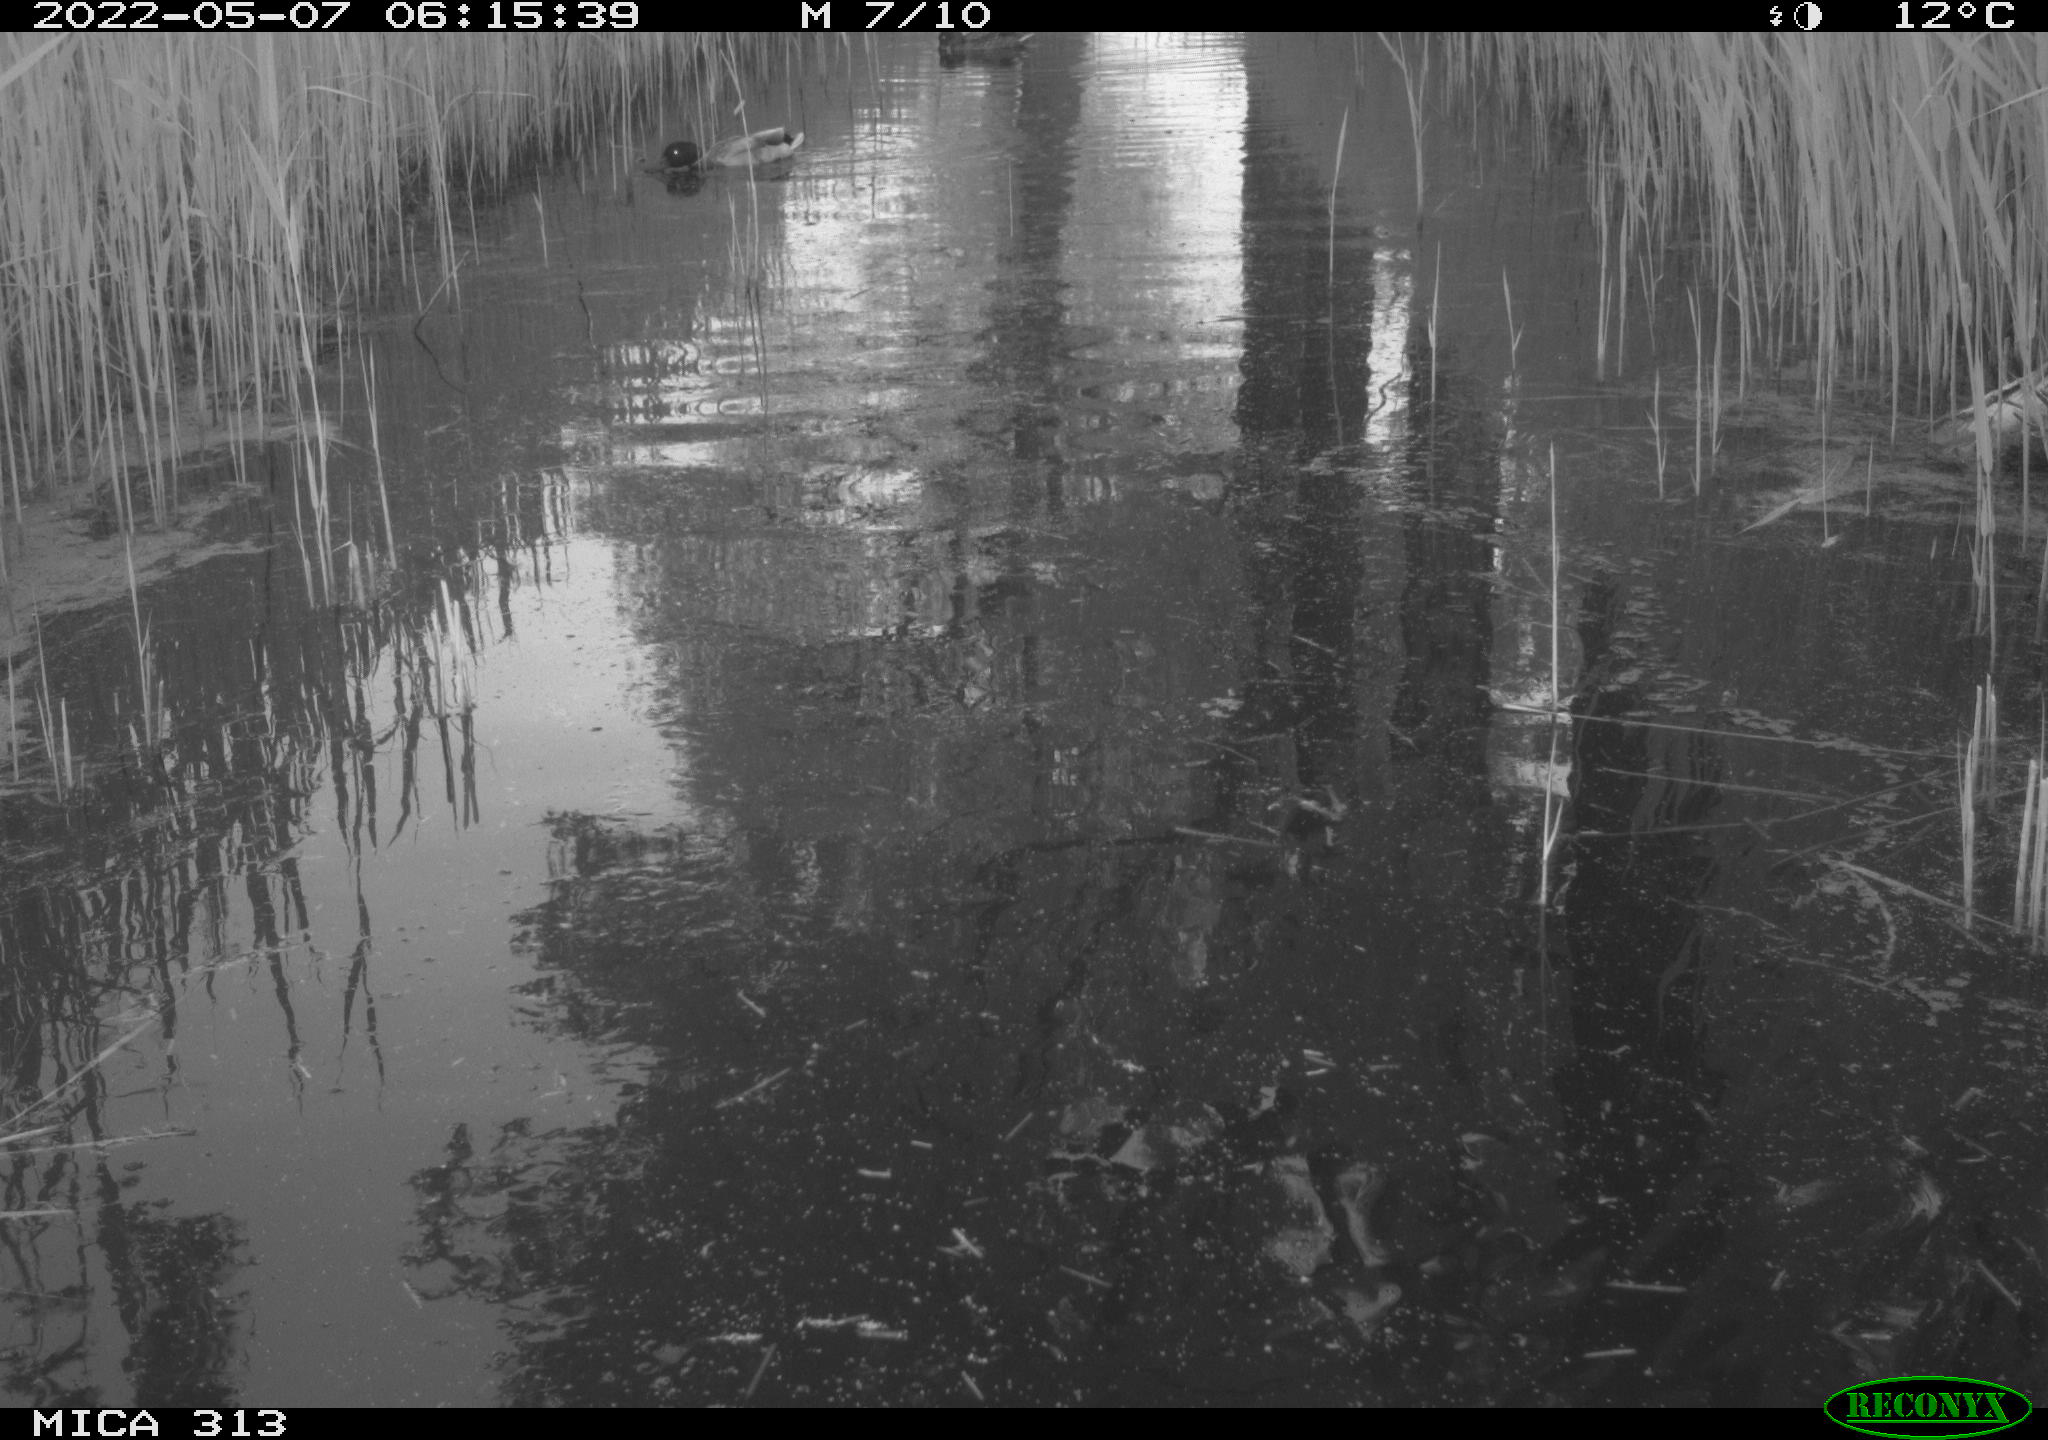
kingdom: Animalia
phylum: Chordata
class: Aves
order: Gruiformes
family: Rallidae
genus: Fulica
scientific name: Fulica atra
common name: Eurasian coot
